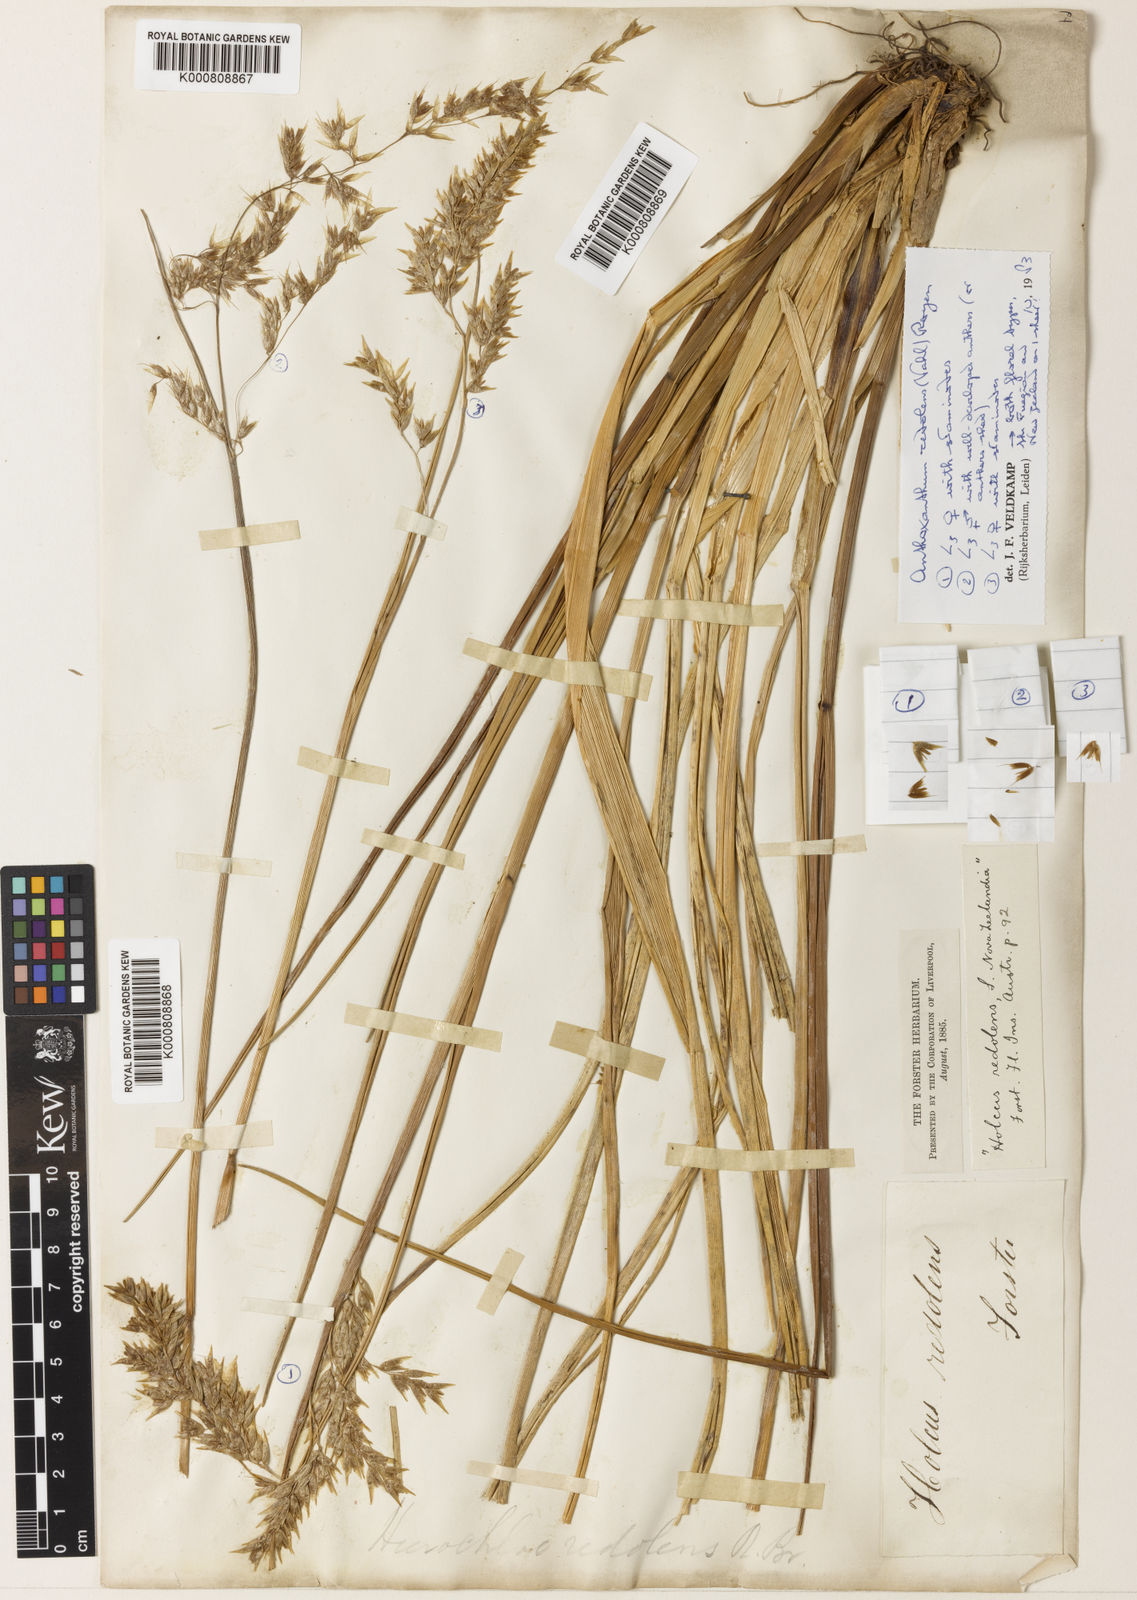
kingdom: Plantae
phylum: Tracheophyta
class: Liliopsida
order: Poales
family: Poaceae
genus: Hierochloe
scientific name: Hierochloe
